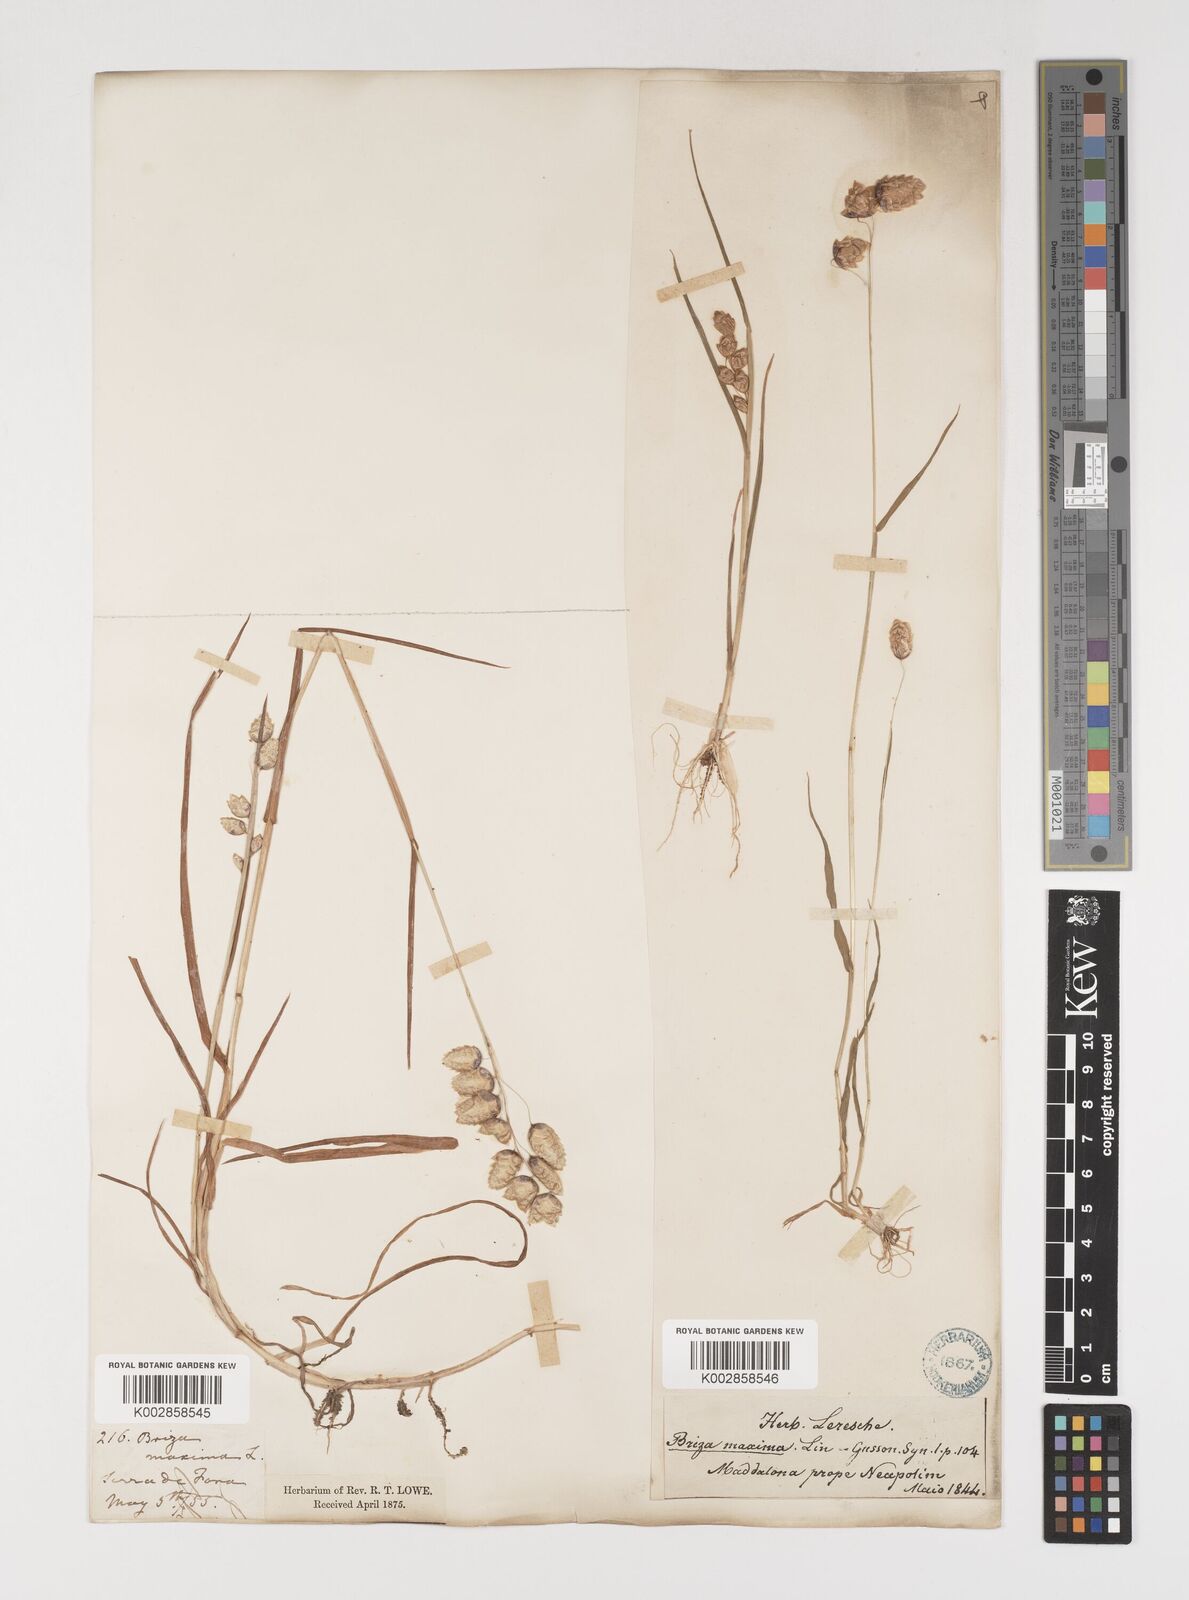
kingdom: Plantae
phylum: Tracheophyta
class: Liliopsida
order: Poales
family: Poaceae
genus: Briza
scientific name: Briza maxima
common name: Big quakinggrass
